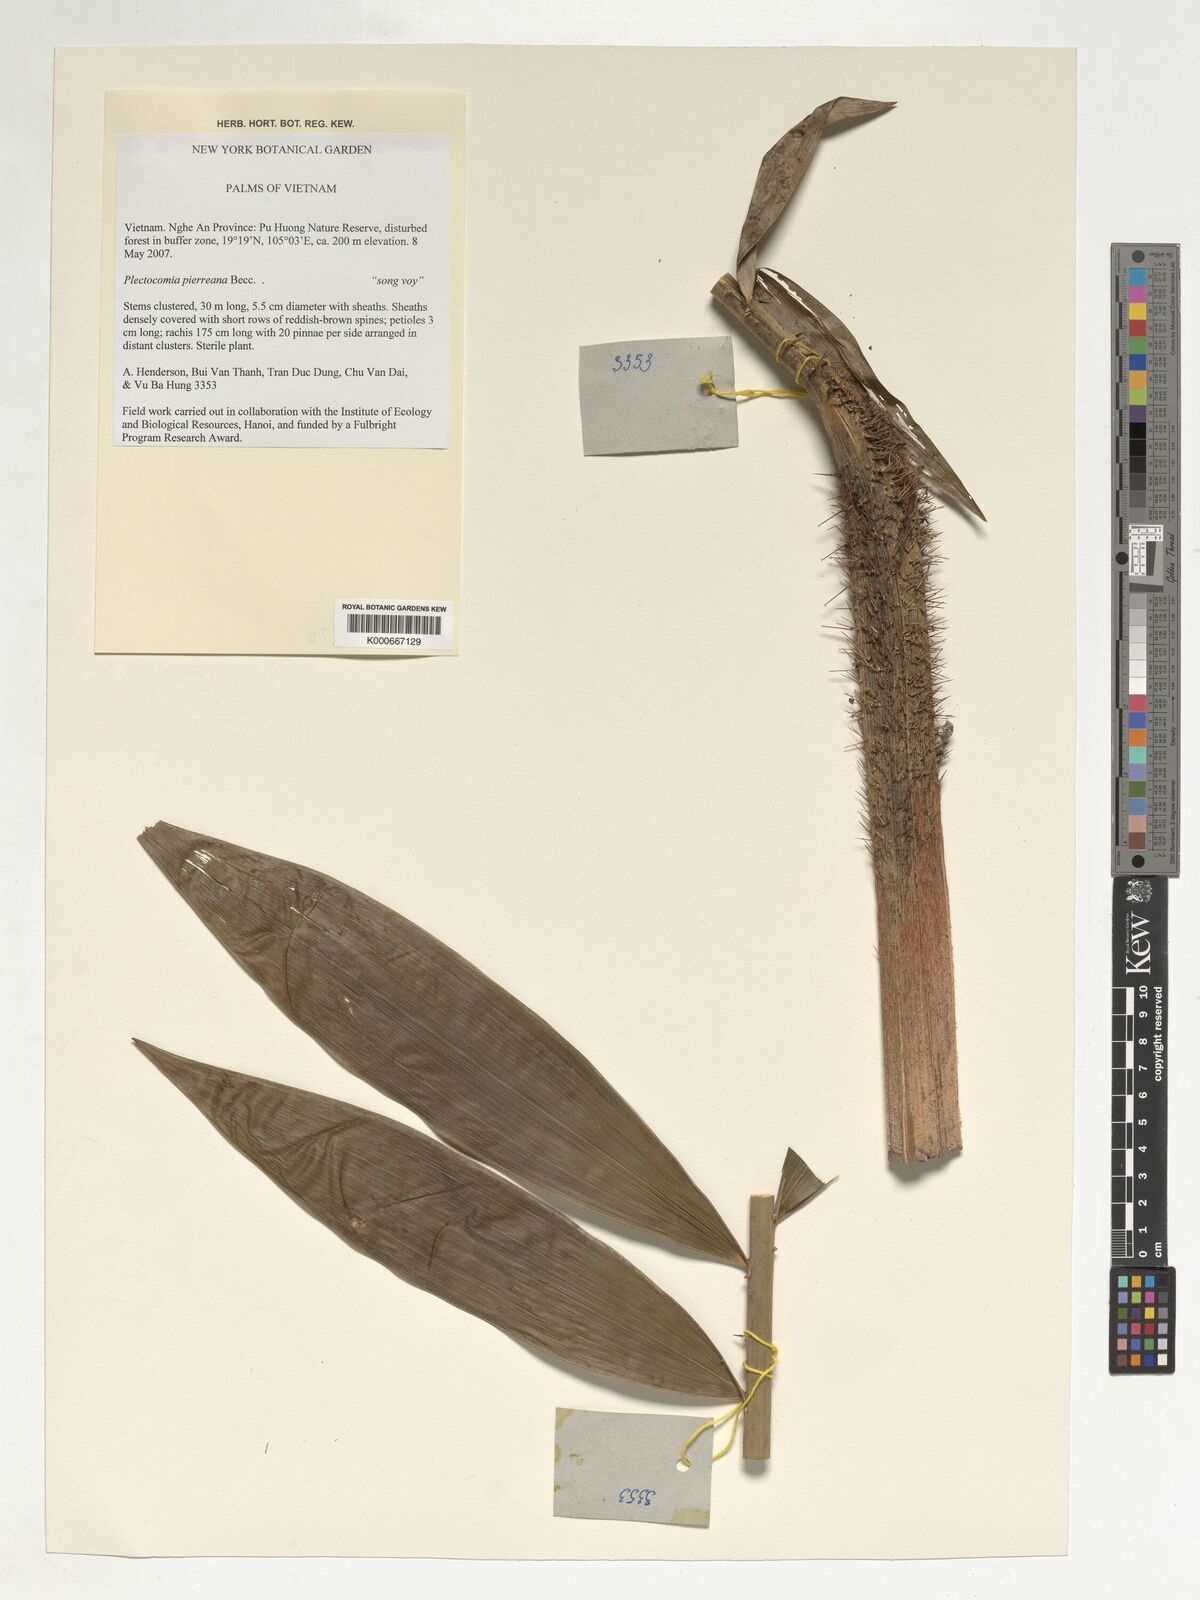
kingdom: Plantae
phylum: Tracheophyta
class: Liliopsida
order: Arecales
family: Arecaceae
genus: Plectocomia
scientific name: Plectocomia pierreana
